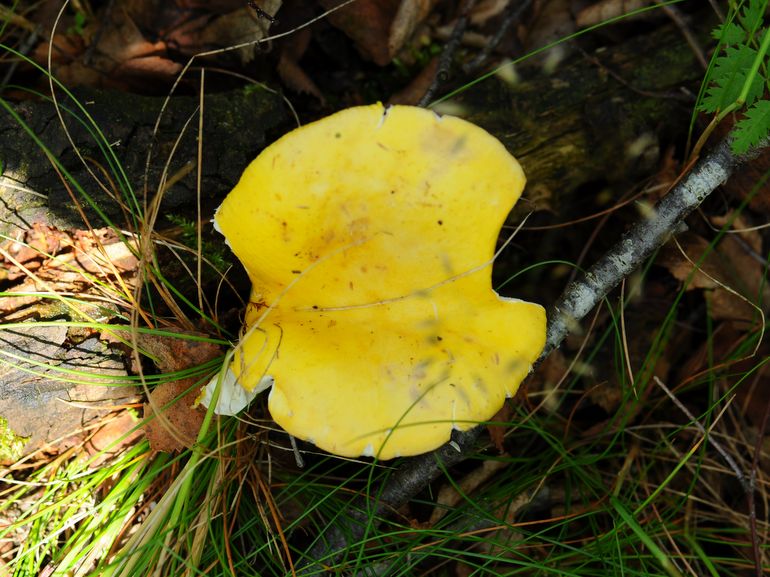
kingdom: Fungi
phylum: Basidiomycota
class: Agaricomycetes
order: Russulales
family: Russulaceae
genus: Russula
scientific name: Russula claroflava
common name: birke-skørhat
